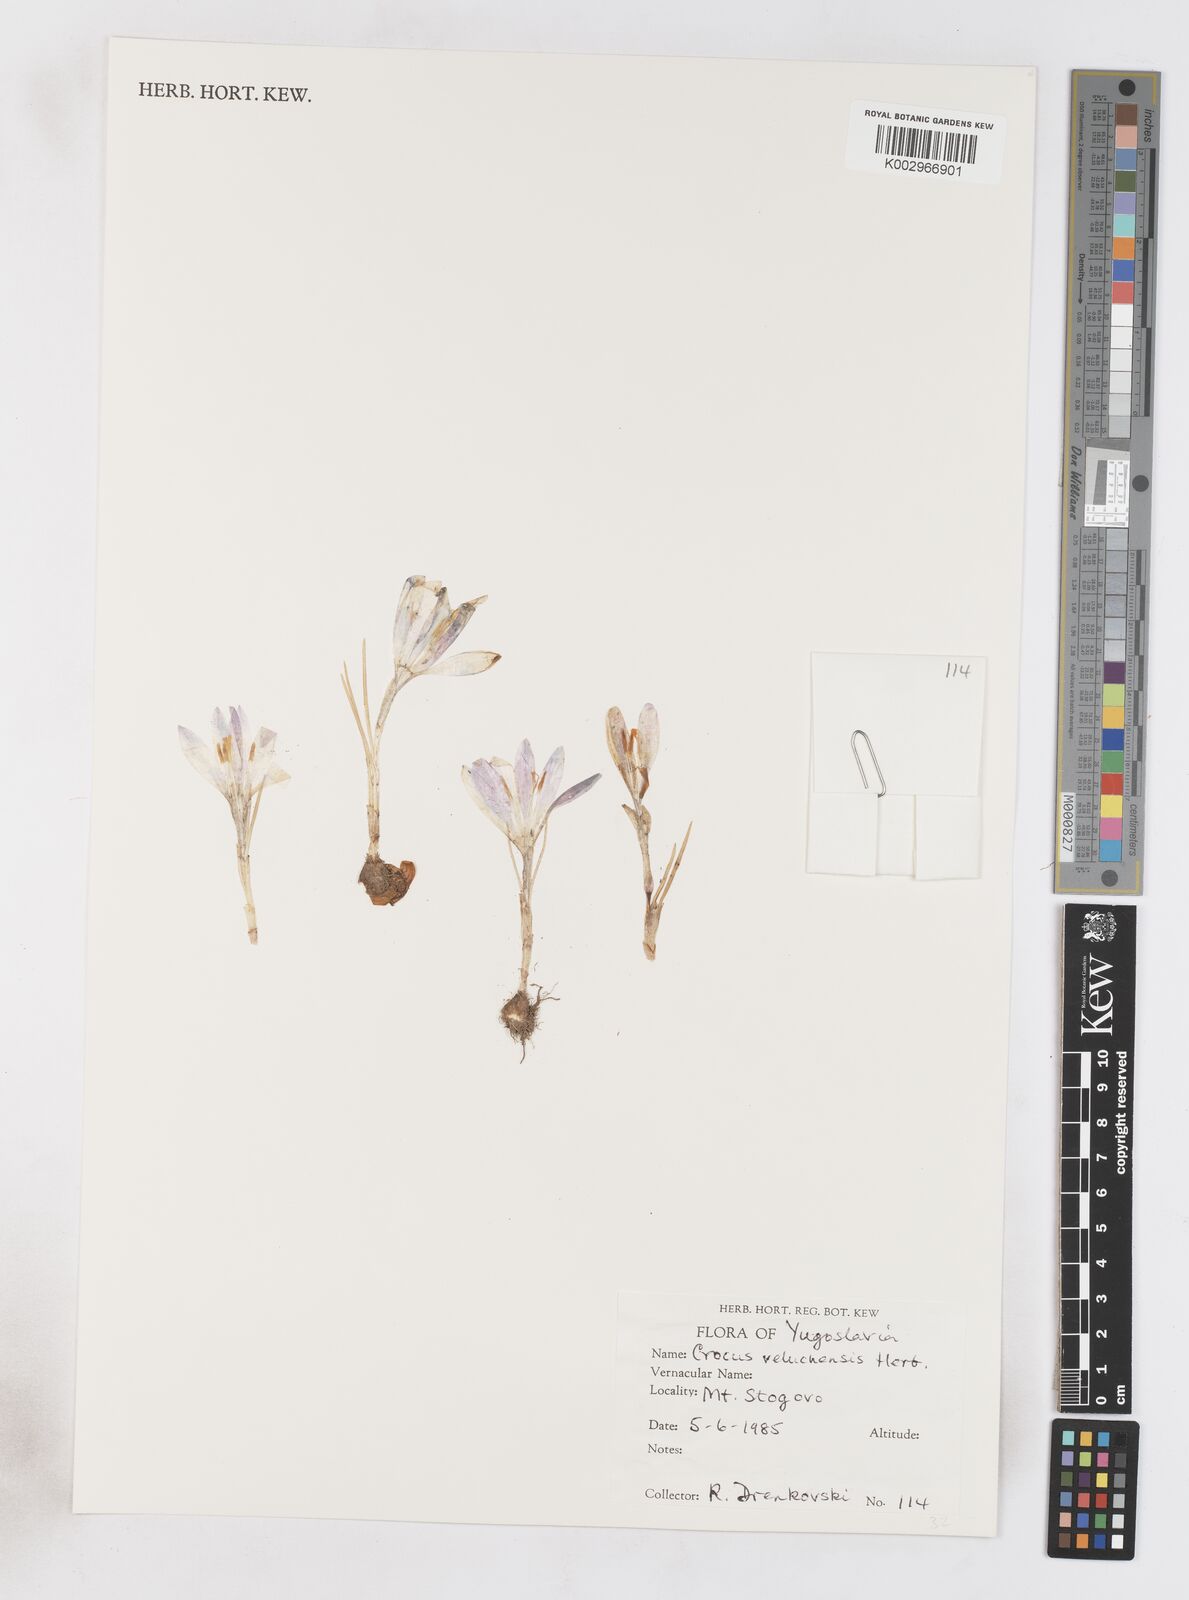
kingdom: Plantae
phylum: Tracheophyta
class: Liliopsida
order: Asparagales
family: Iridaceae
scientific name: Iridaceae
